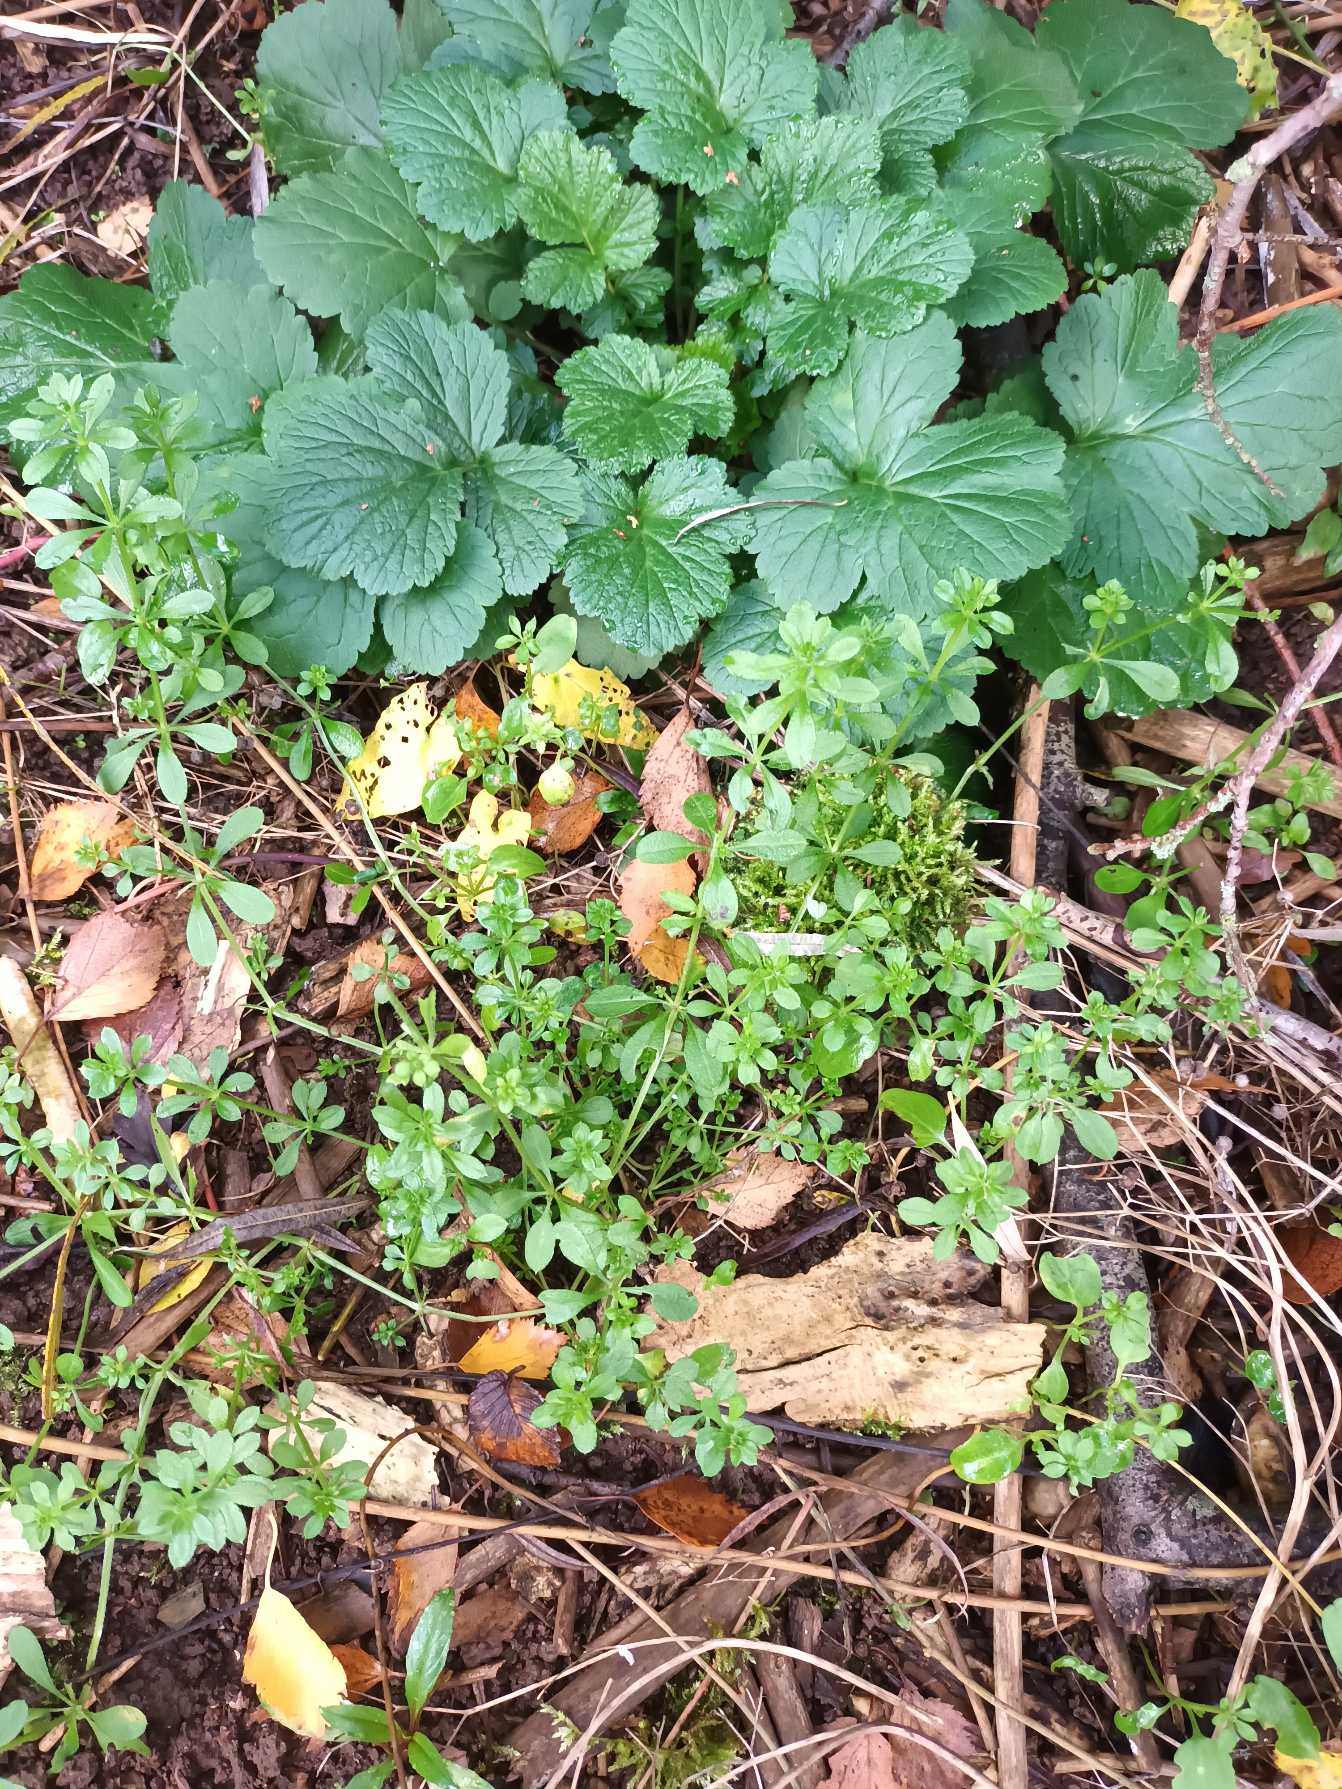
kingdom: Plantae
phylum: Tracheophyta
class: Magnoliopsida
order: Gentianales
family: Rubiaceae
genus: Galium
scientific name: Galium aparine
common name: Burre-snerre
